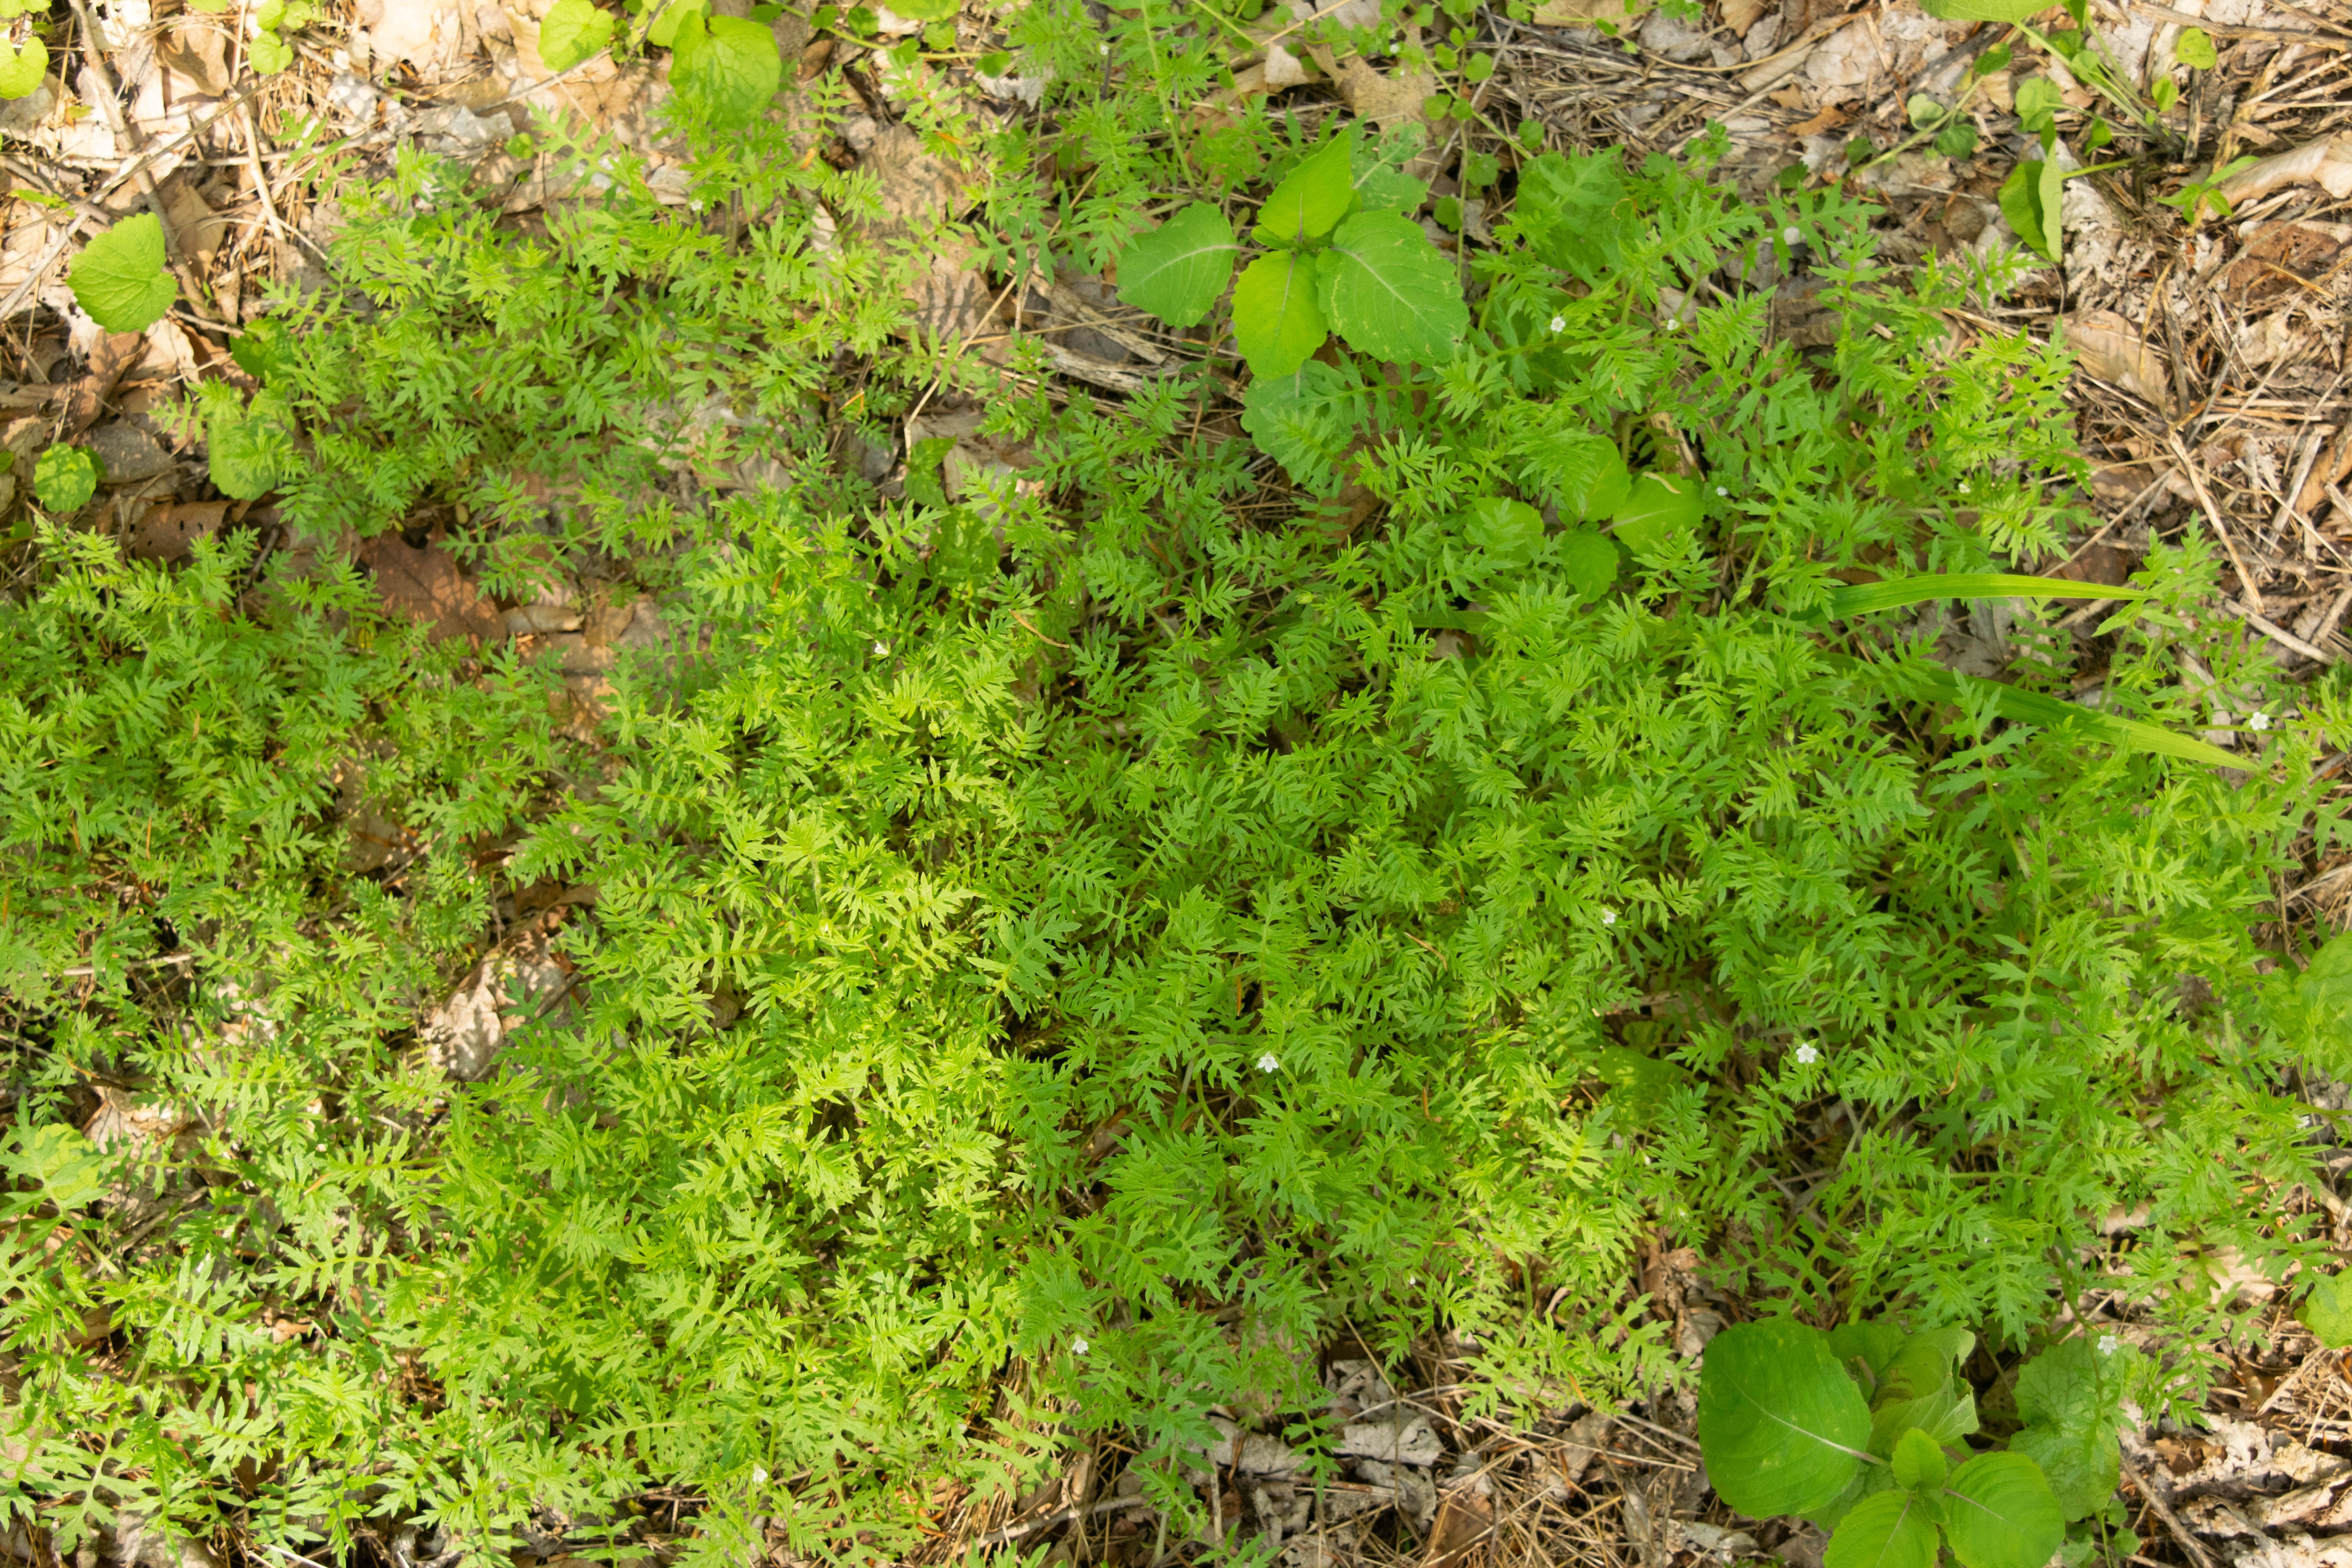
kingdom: Plantae
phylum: Tracheophyta
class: Magnoliopsida
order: Boraginales
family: Hydrophyllaceae
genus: Ellisia
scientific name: Ellisia nyctelea
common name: Aunt lucy
